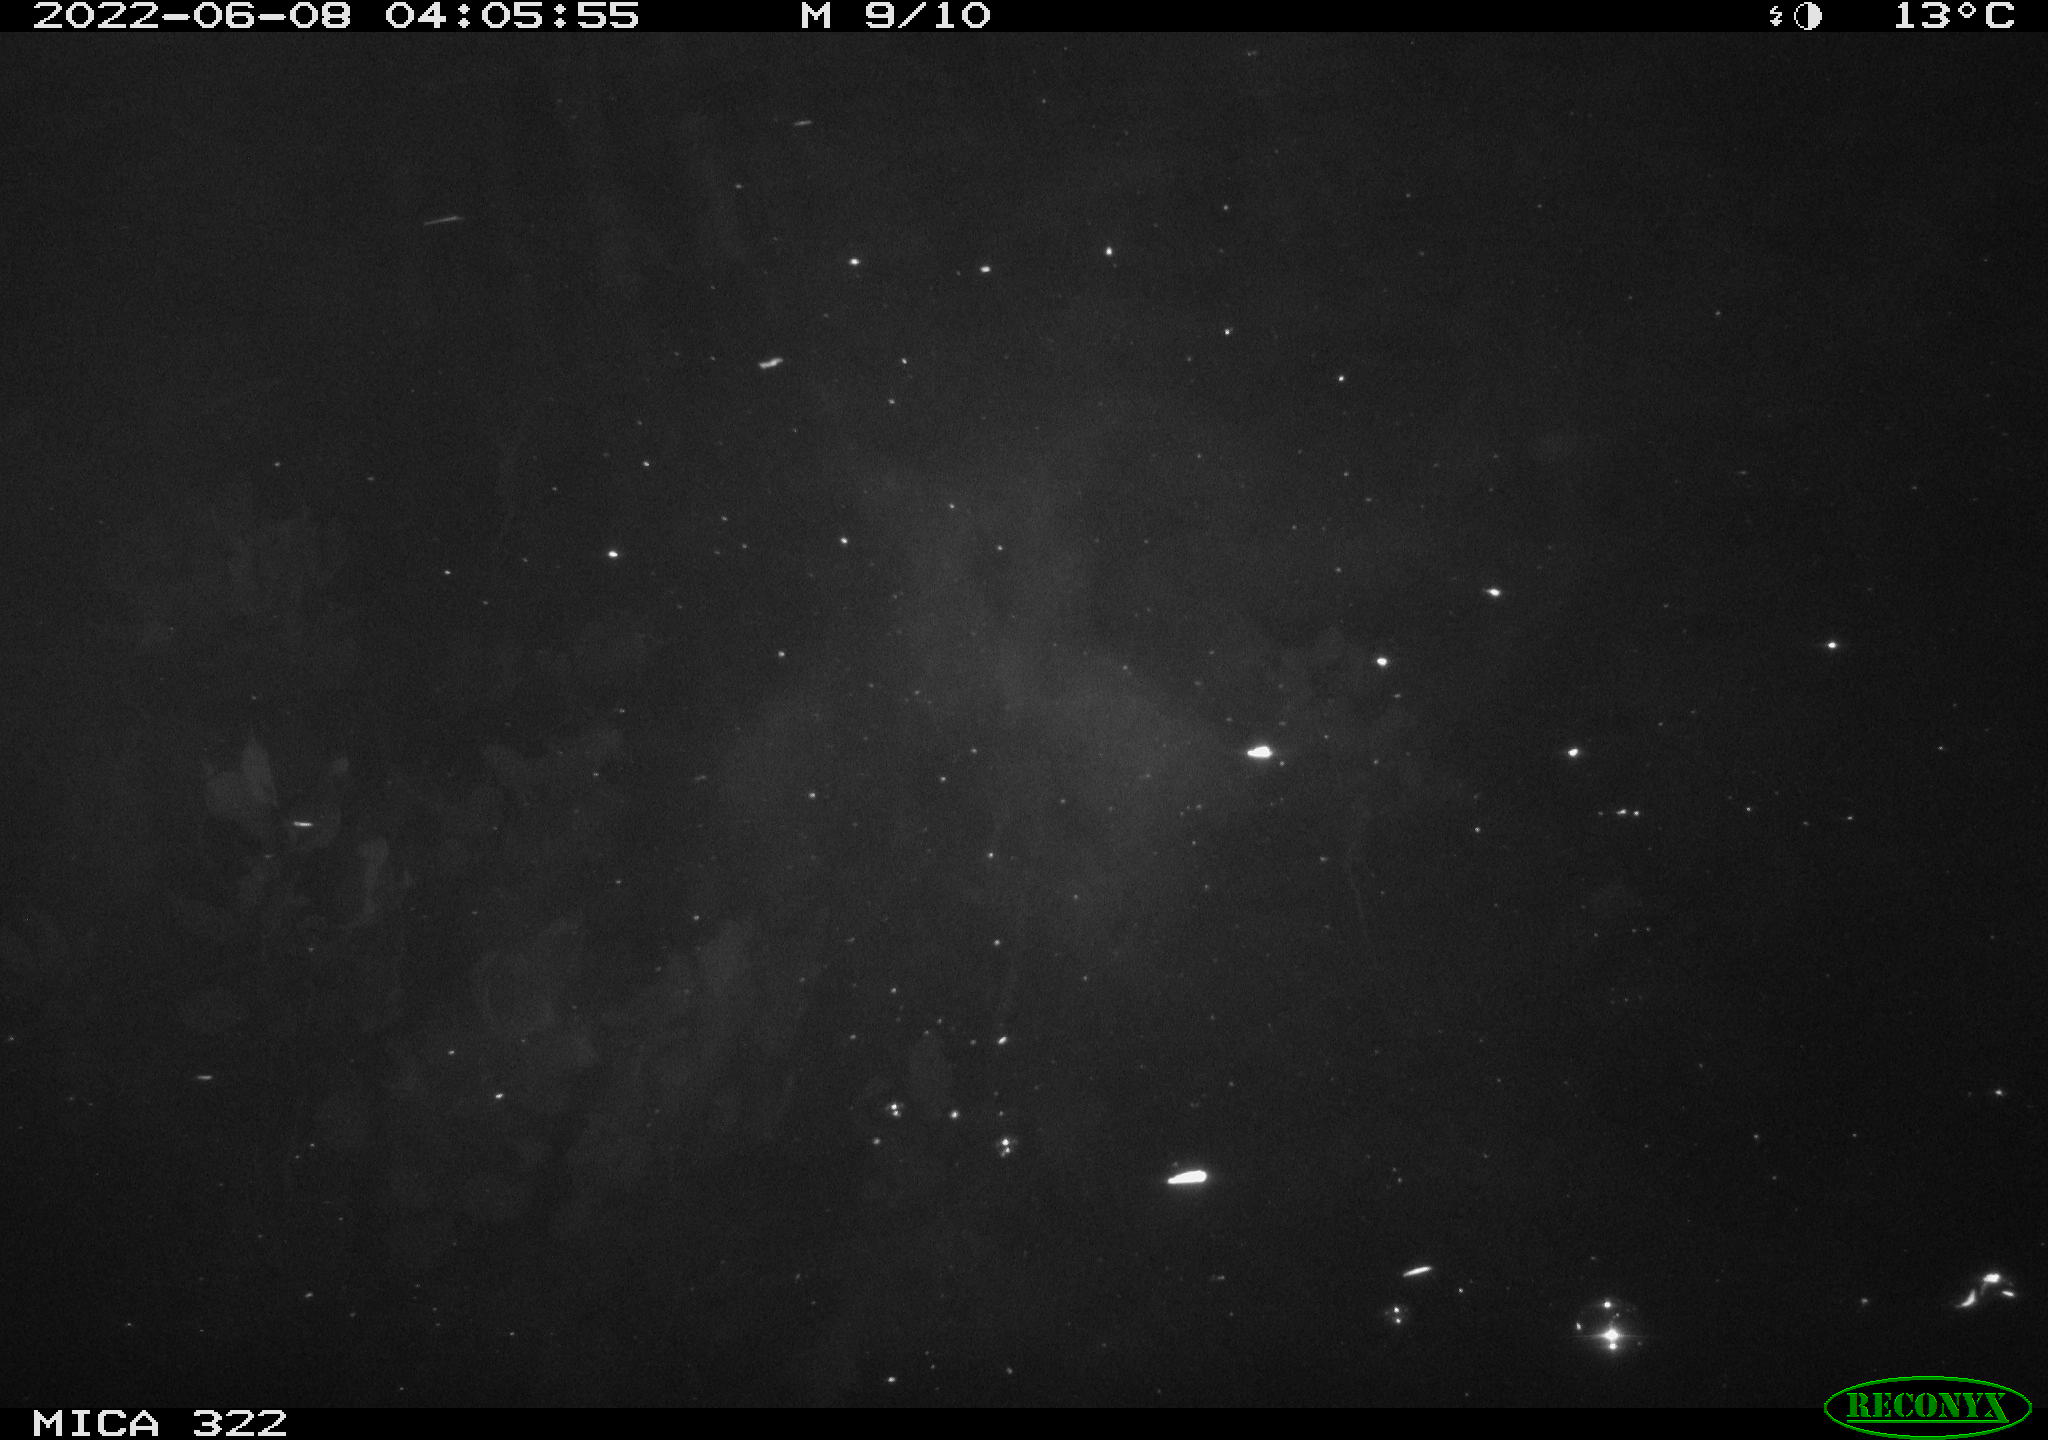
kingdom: Animalia
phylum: Chordata
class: Aves
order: Gruiformes
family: Rallidae
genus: Gallinula
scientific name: Gallinula chloropus
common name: Common moorhen
